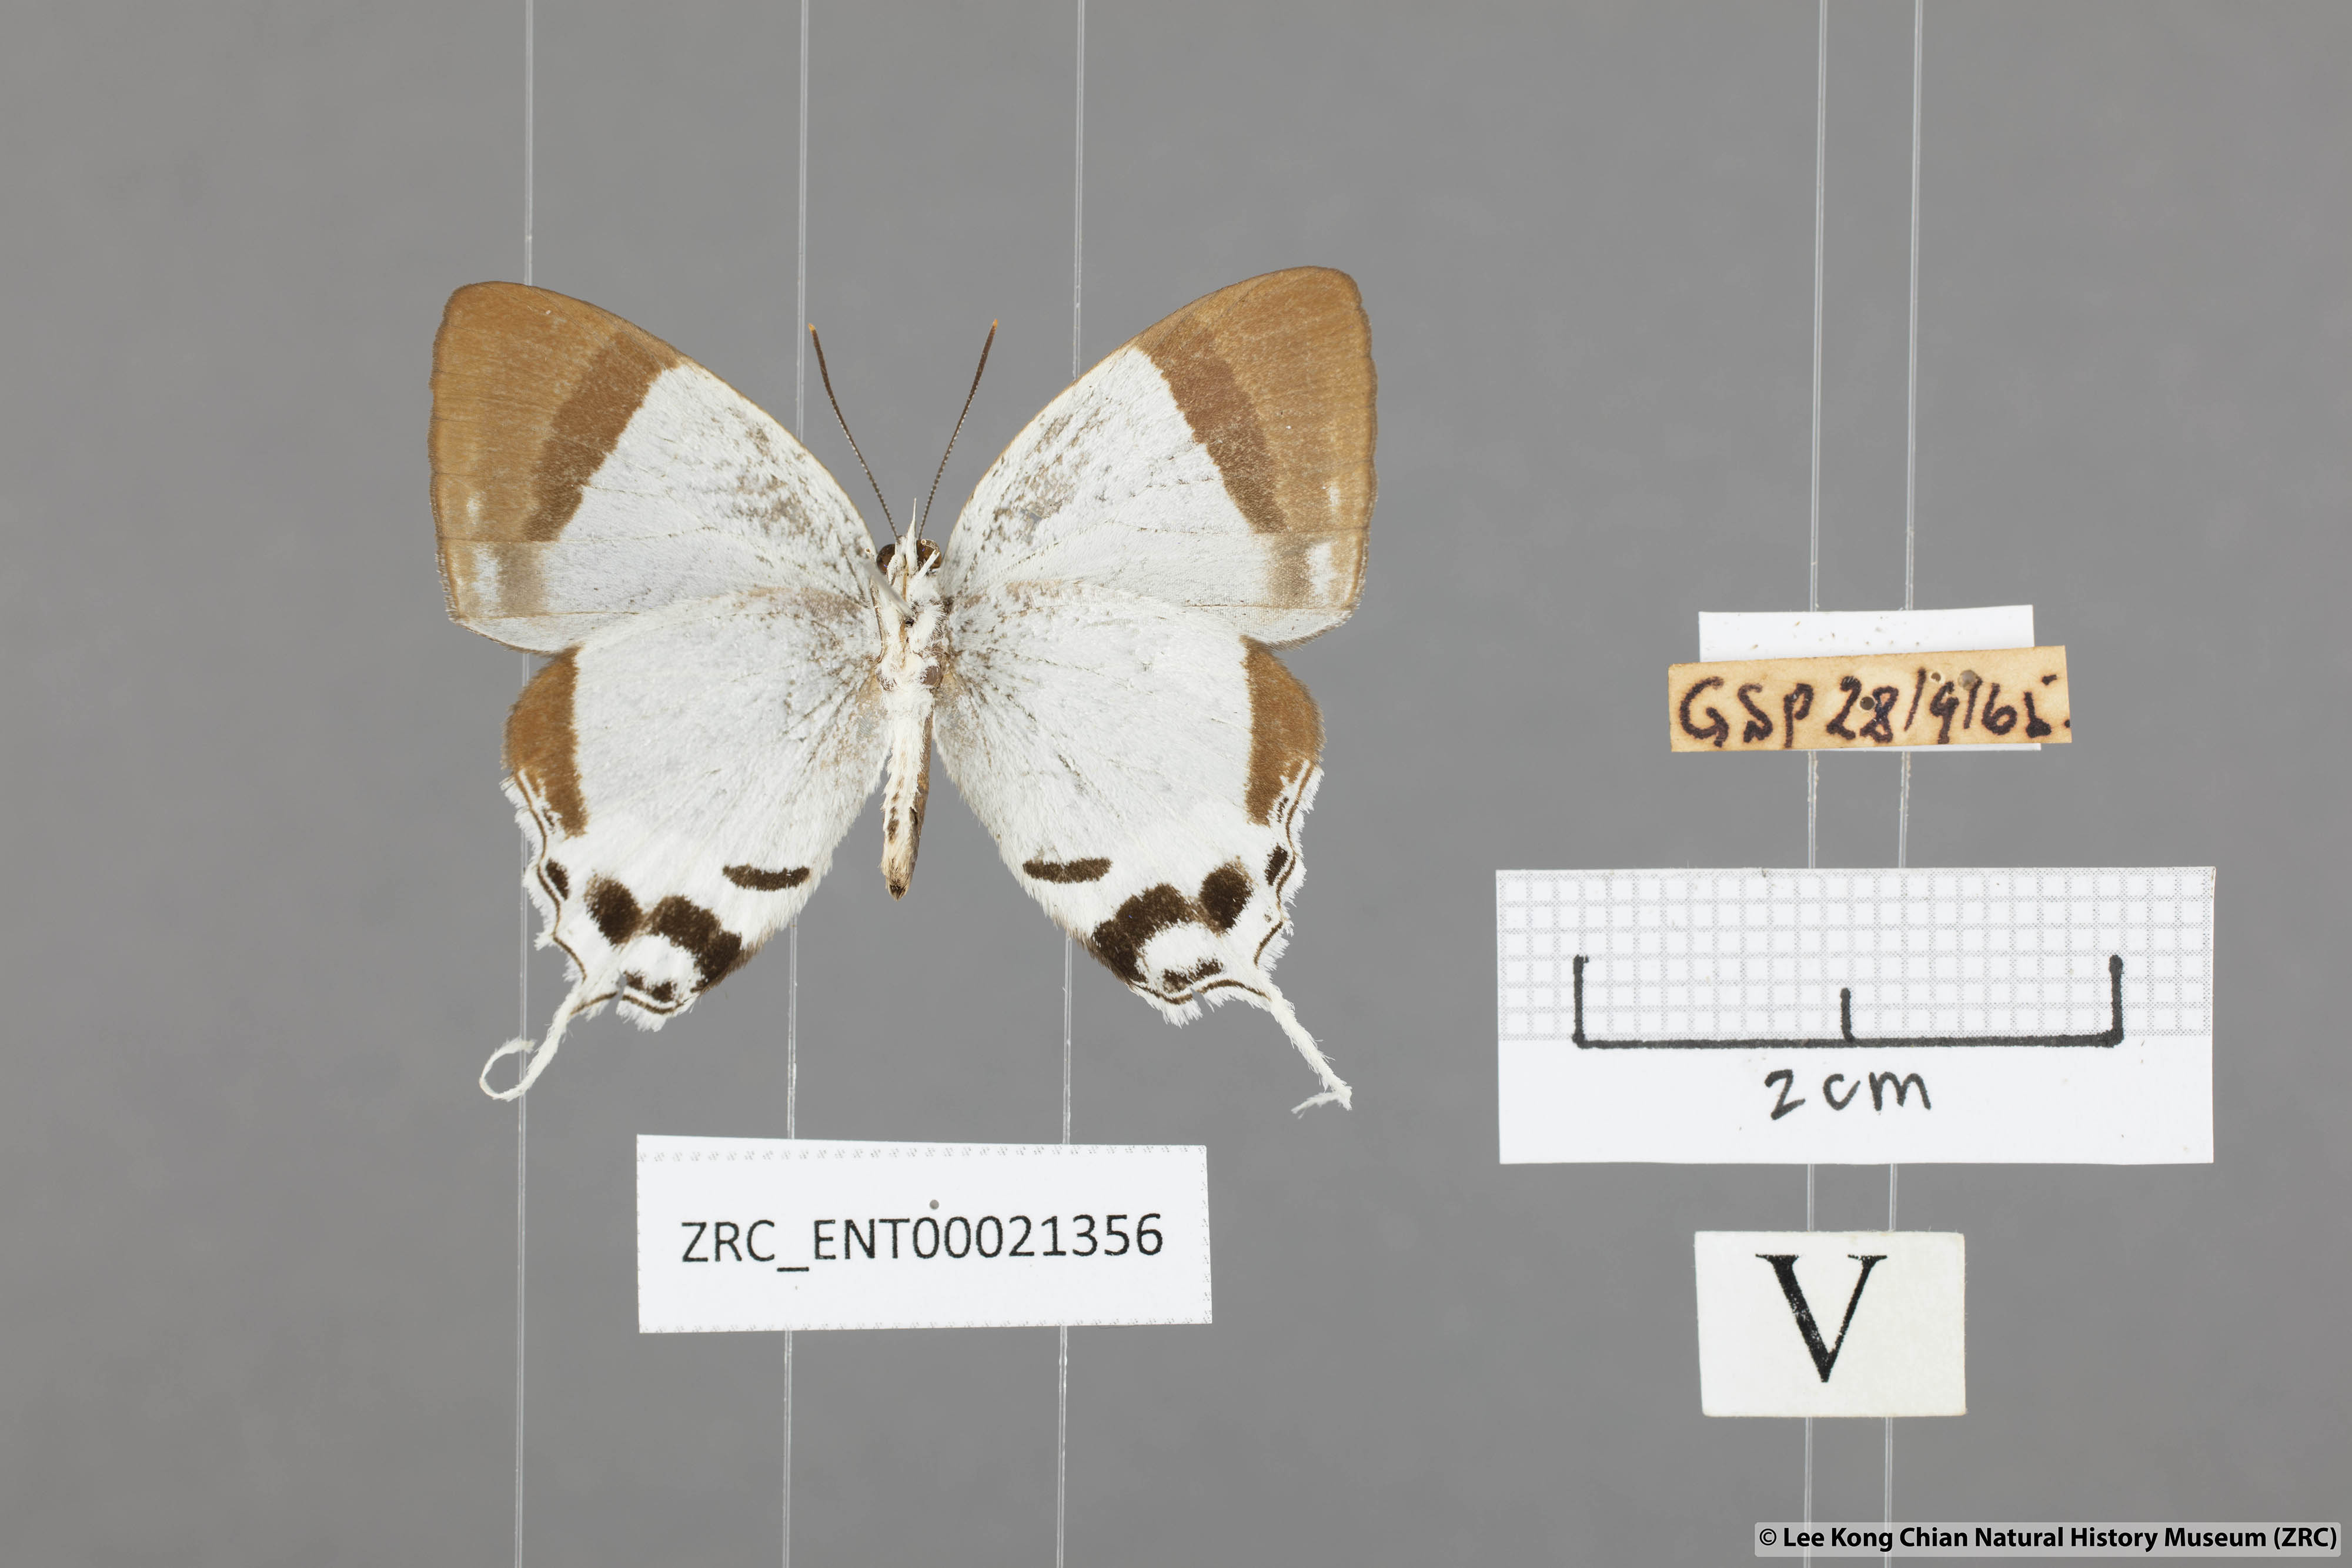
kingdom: Animalia
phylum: Arthropoda
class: Insecta
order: Lepidoptera
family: Lycaenidae
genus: Drina
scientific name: Drina
